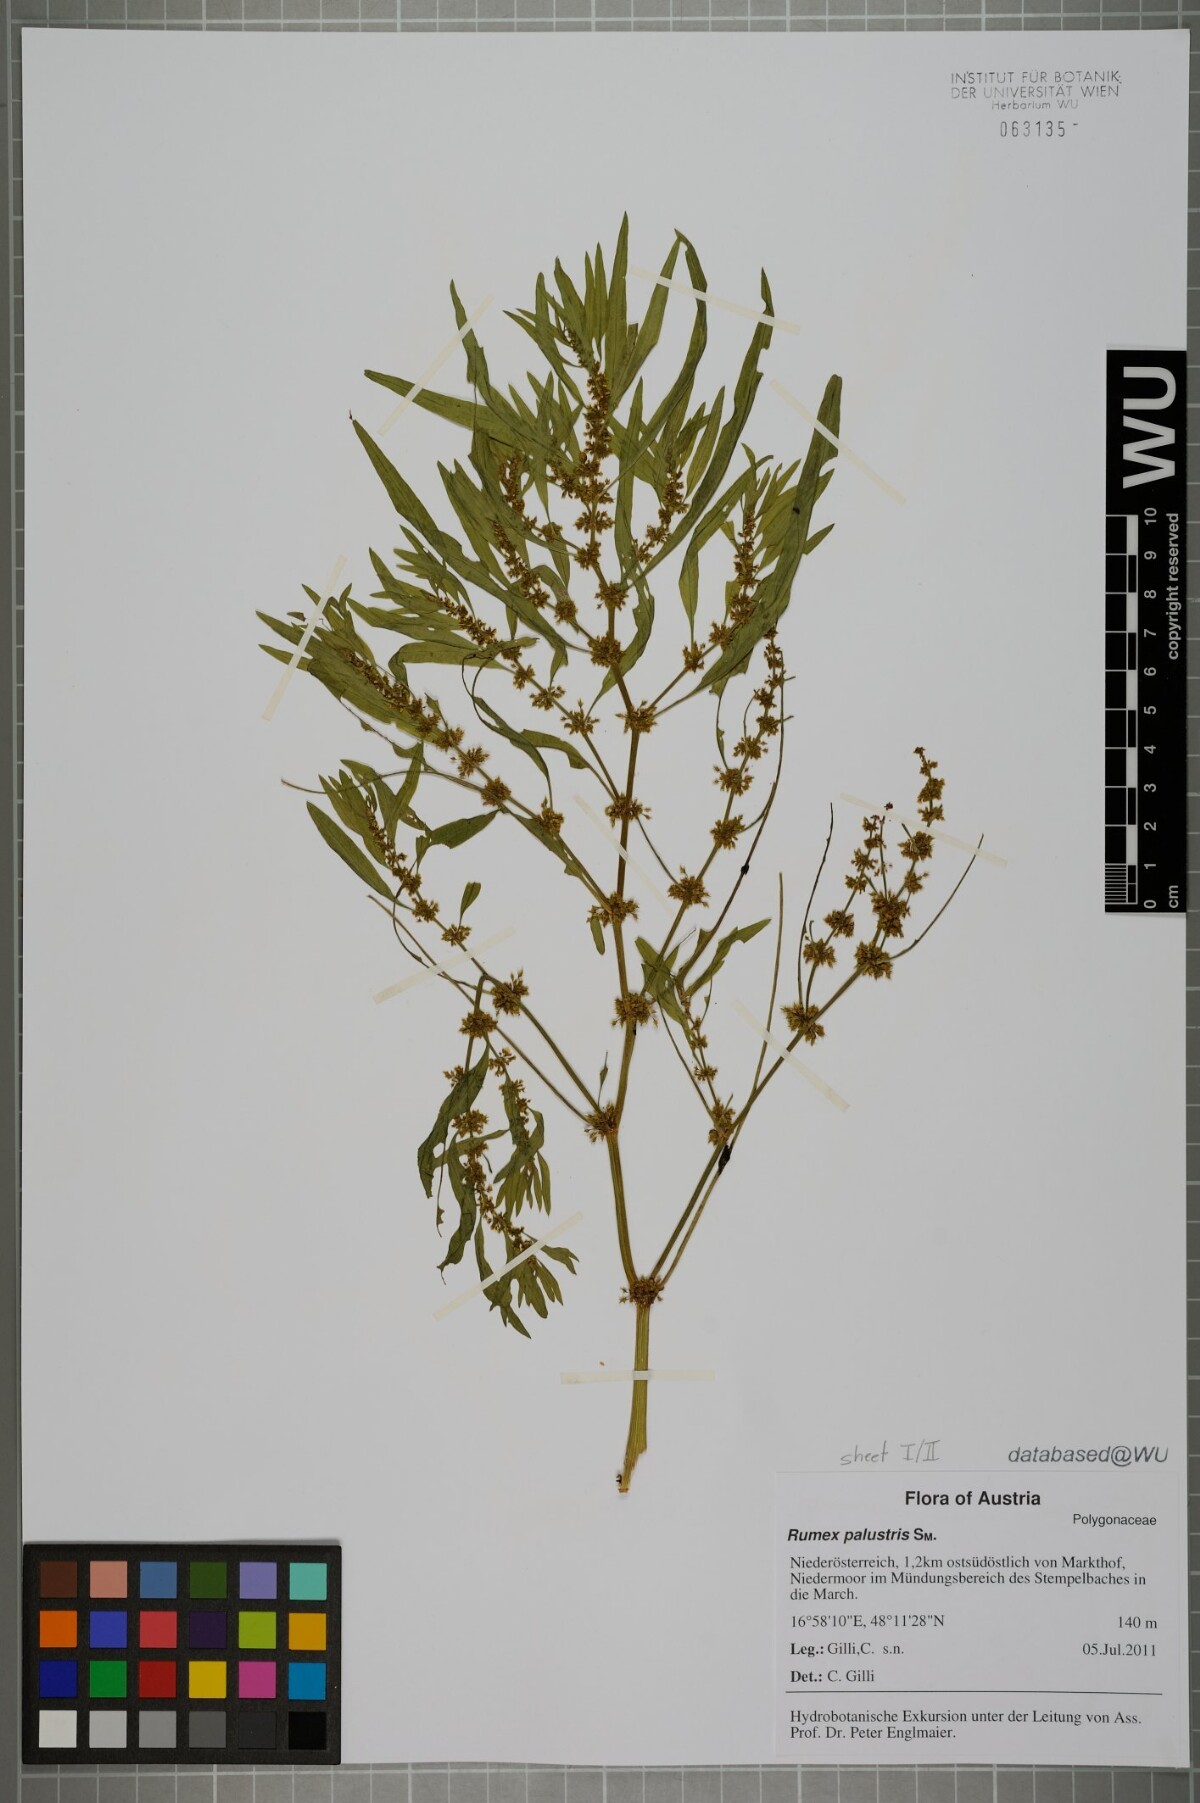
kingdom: Plantae
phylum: Tracheophyta
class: Magnoliopsida
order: Caryophyllales
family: Polygonaceae
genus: Rumex
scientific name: Rumex maritimus
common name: Golden dock
